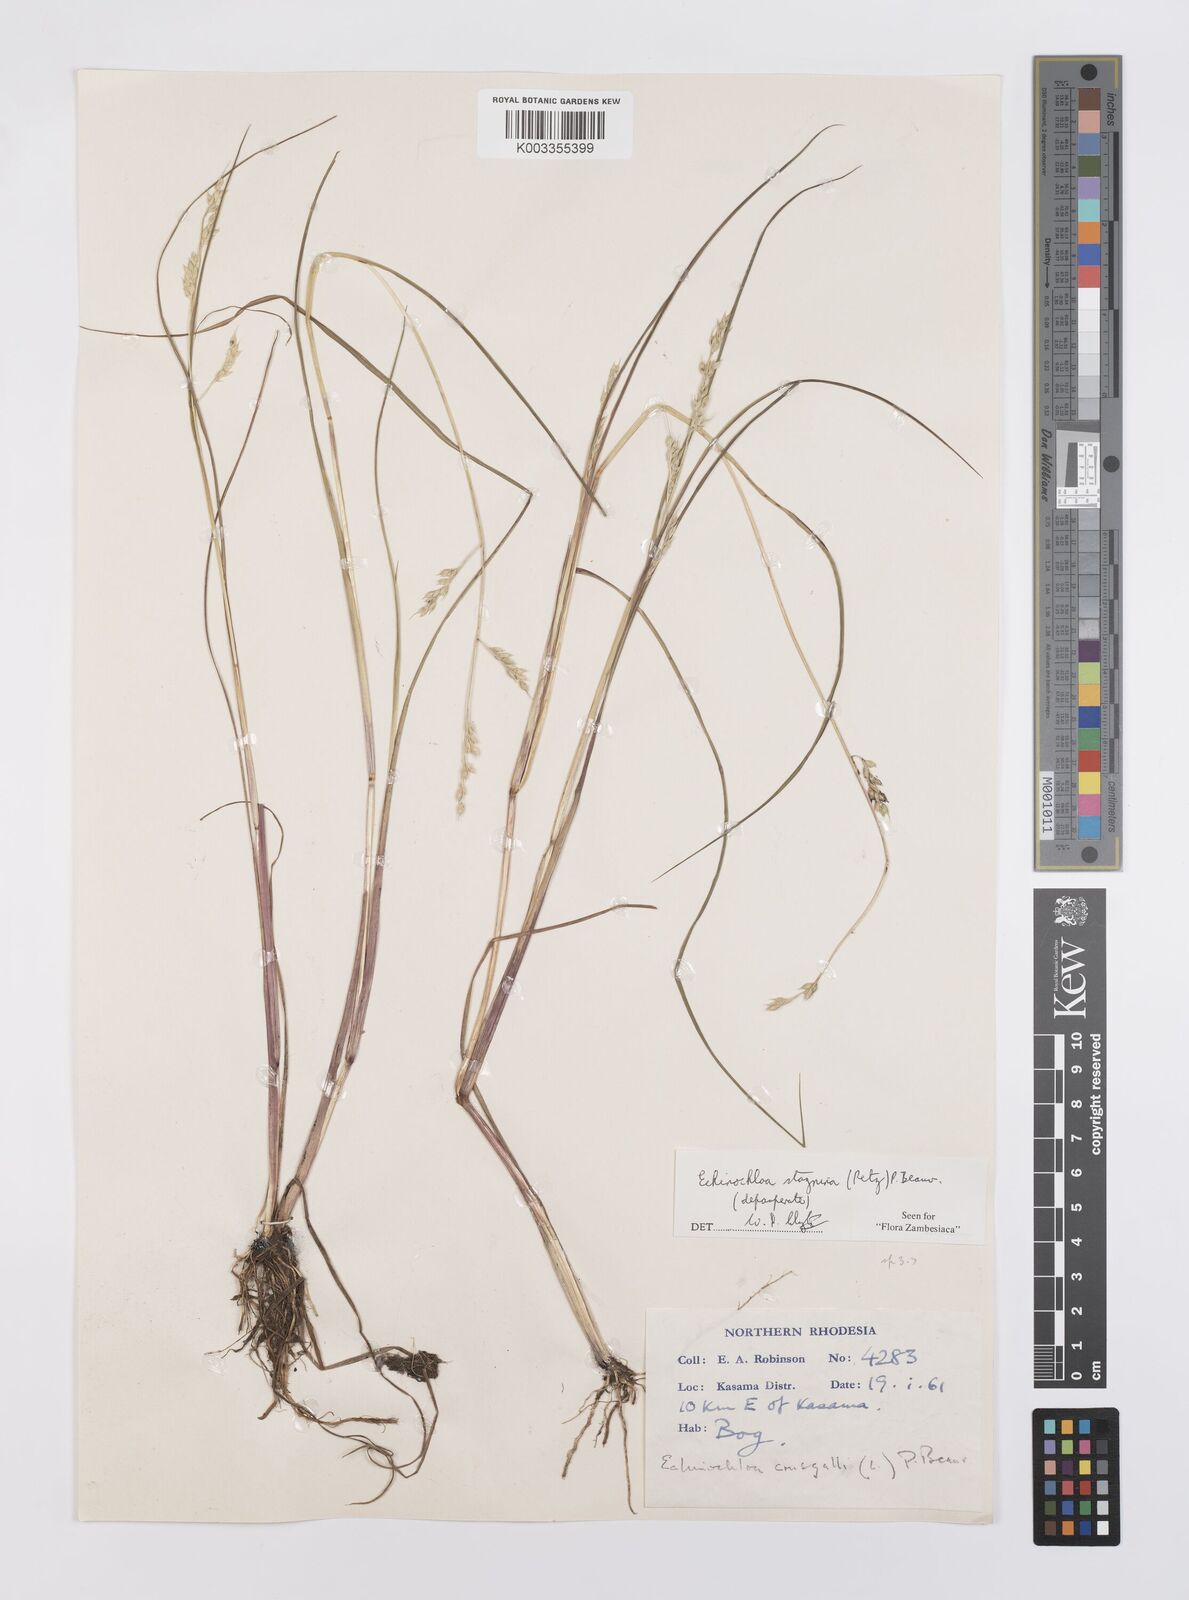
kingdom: Plantae
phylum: Tracheophyta
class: Liliopsida
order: Poales
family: Poaceae
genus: Echinochloa
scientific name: Echinochloa stagnina
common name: Burgu grass
